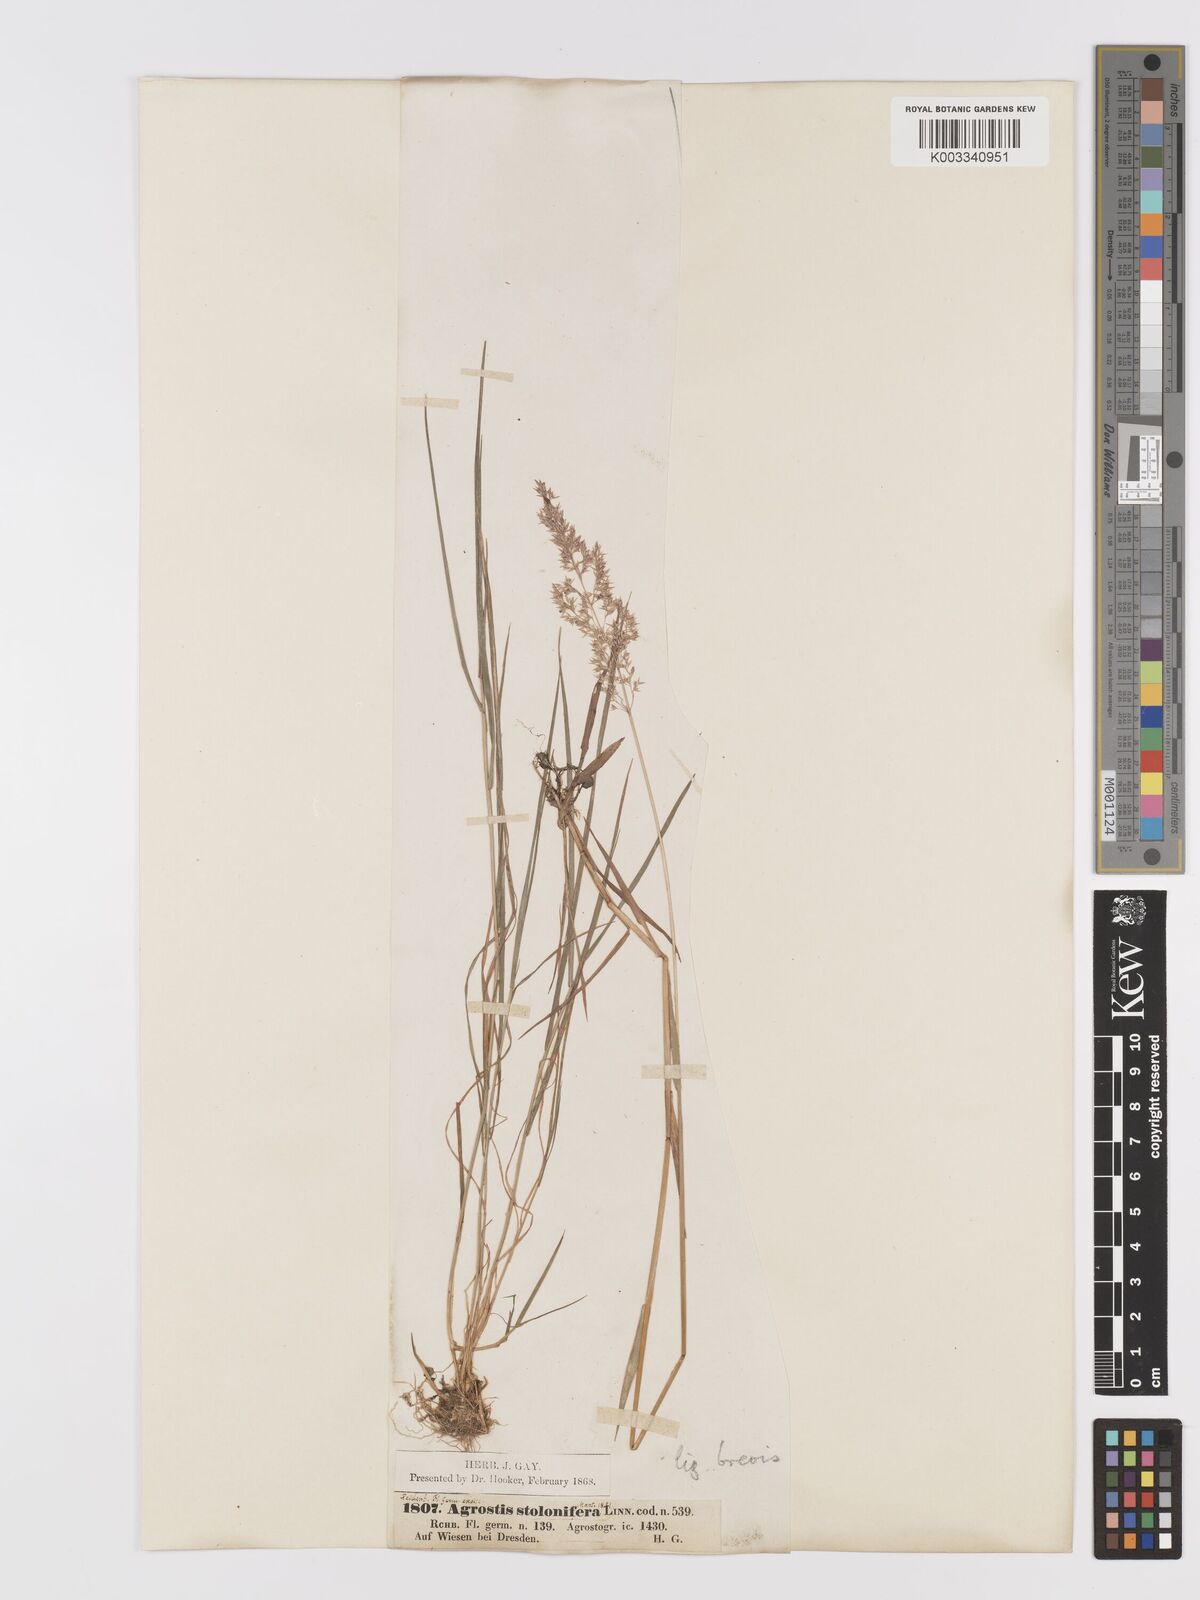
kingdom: Plantae
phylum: Tracheophyta
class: Liliopsida
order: Poales
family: Poaceae
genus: Agrostis
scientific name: Agrostis capillaris
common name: Colonial bentgrass
